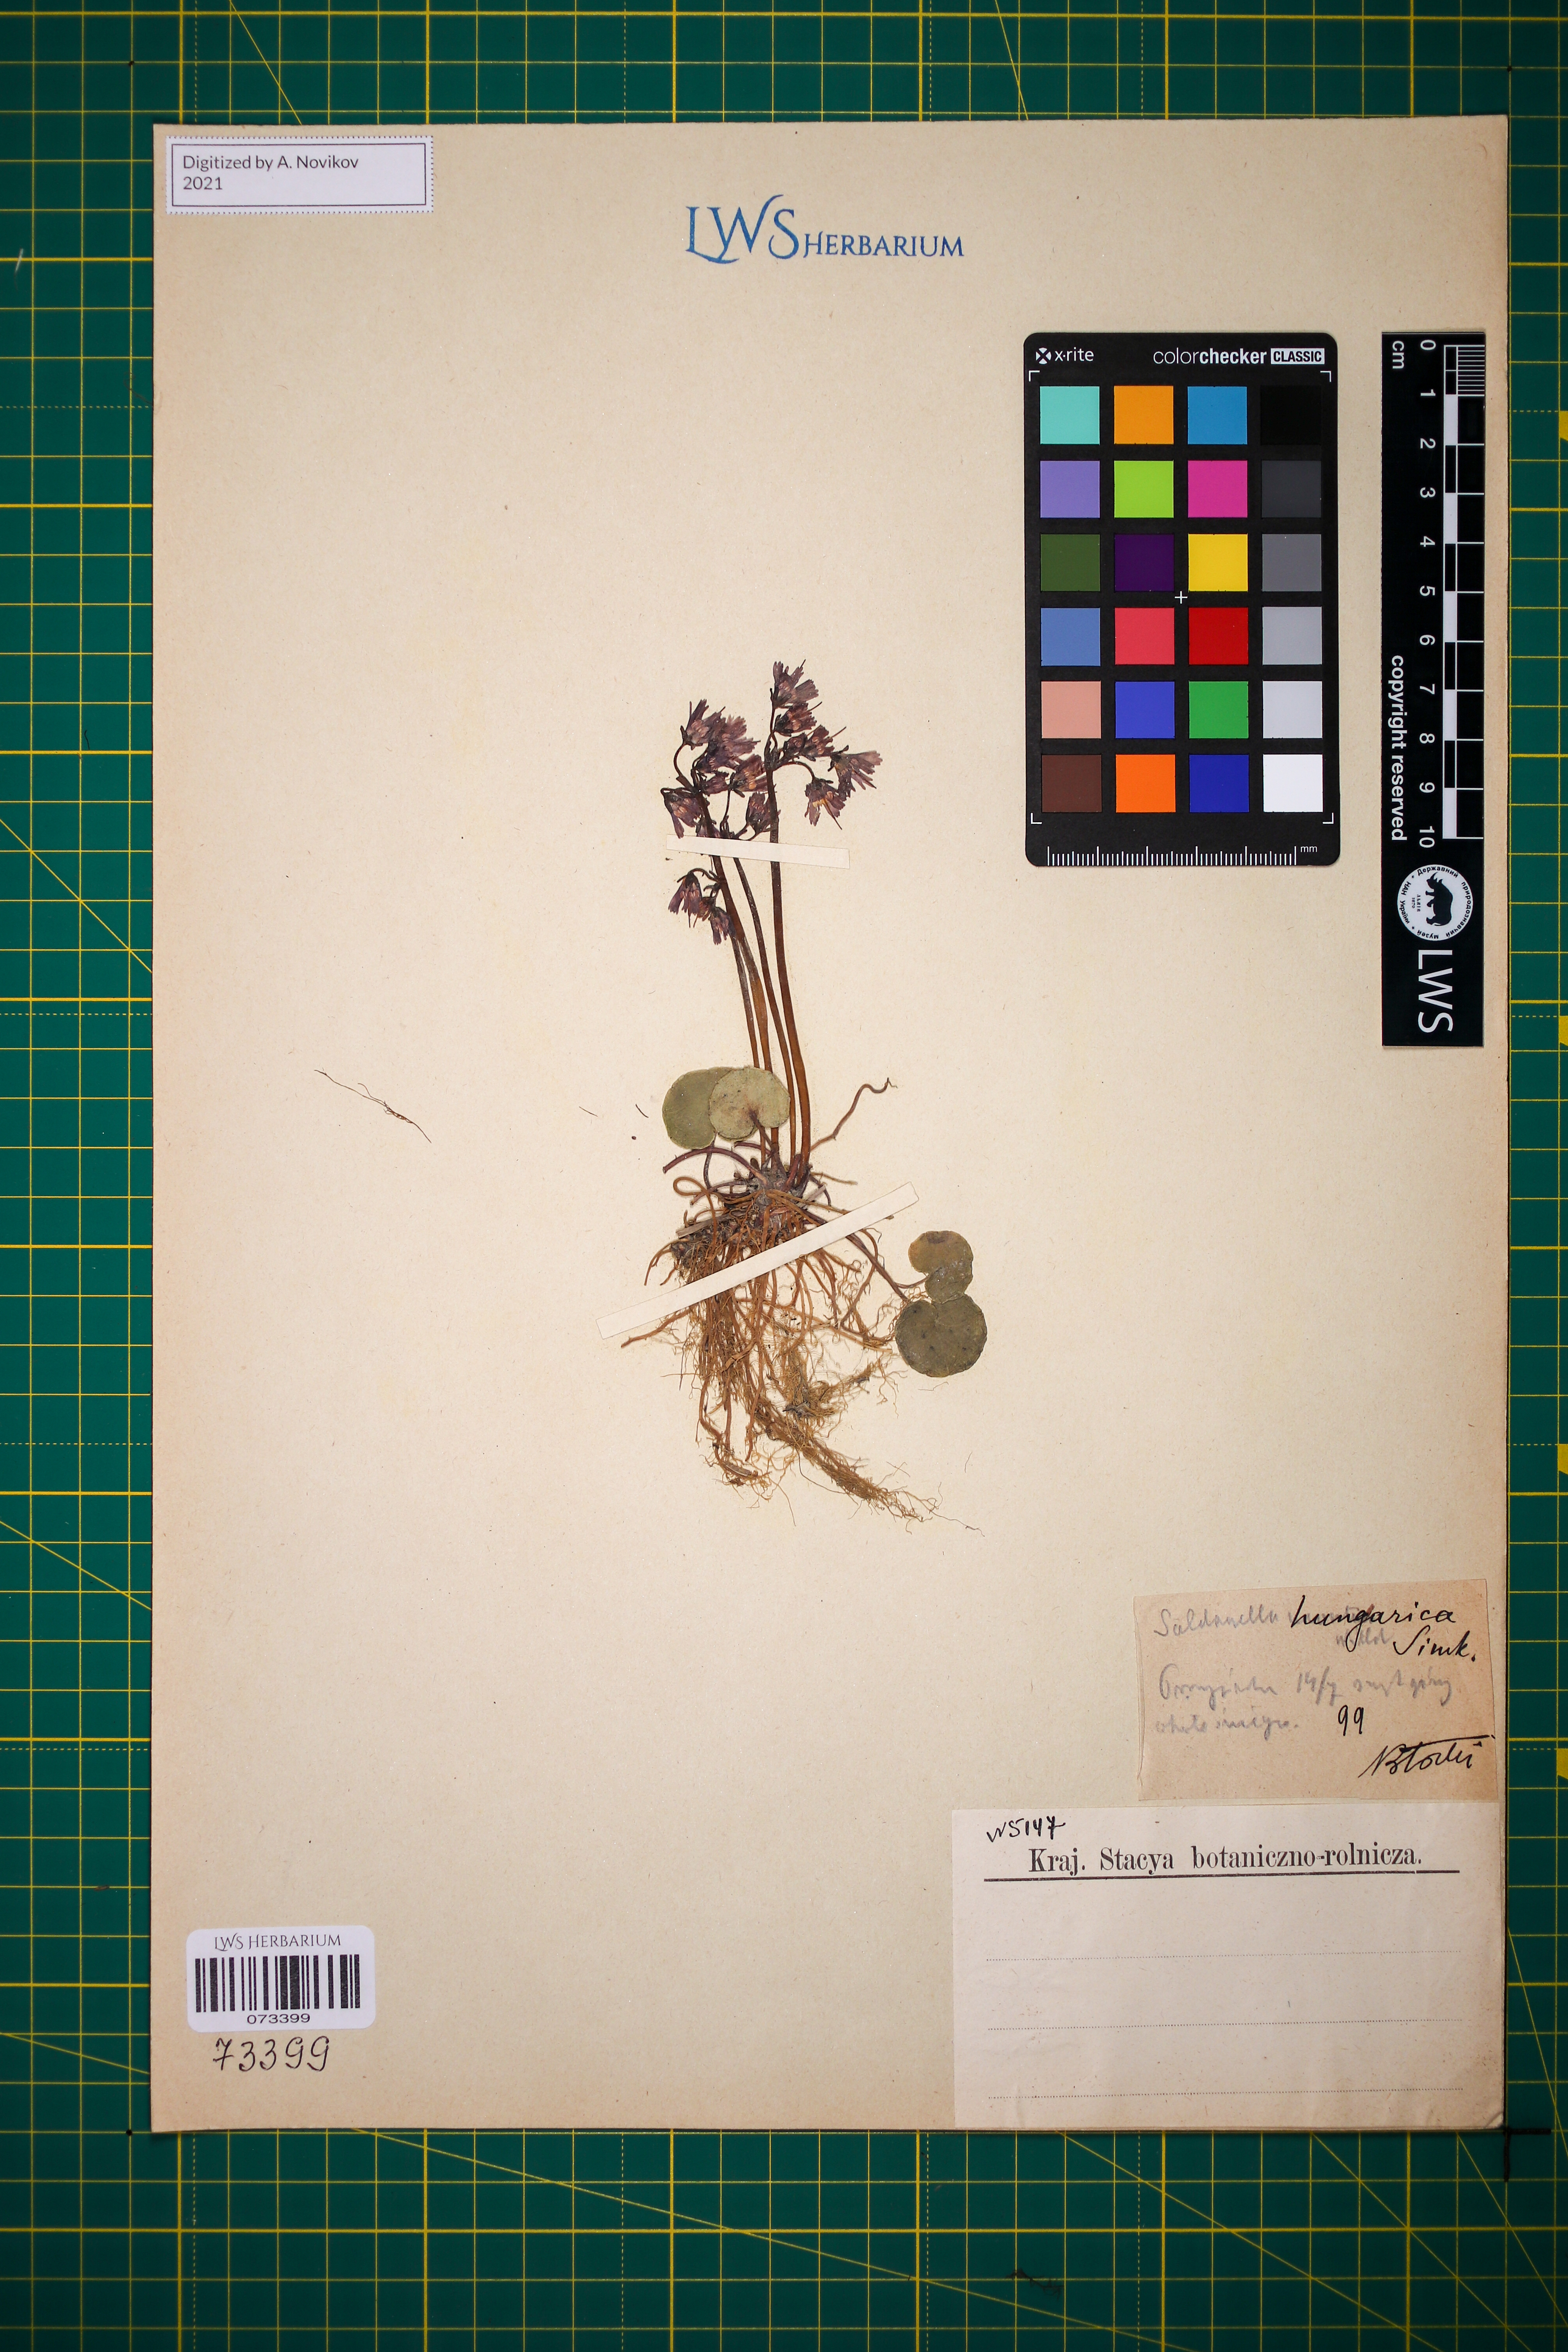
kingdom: Plantae
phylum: Tracheophyta
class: Magnoliopsida
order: Ericales
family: Primulaceae
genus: Soldanella
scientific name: Soldanella hungarica
